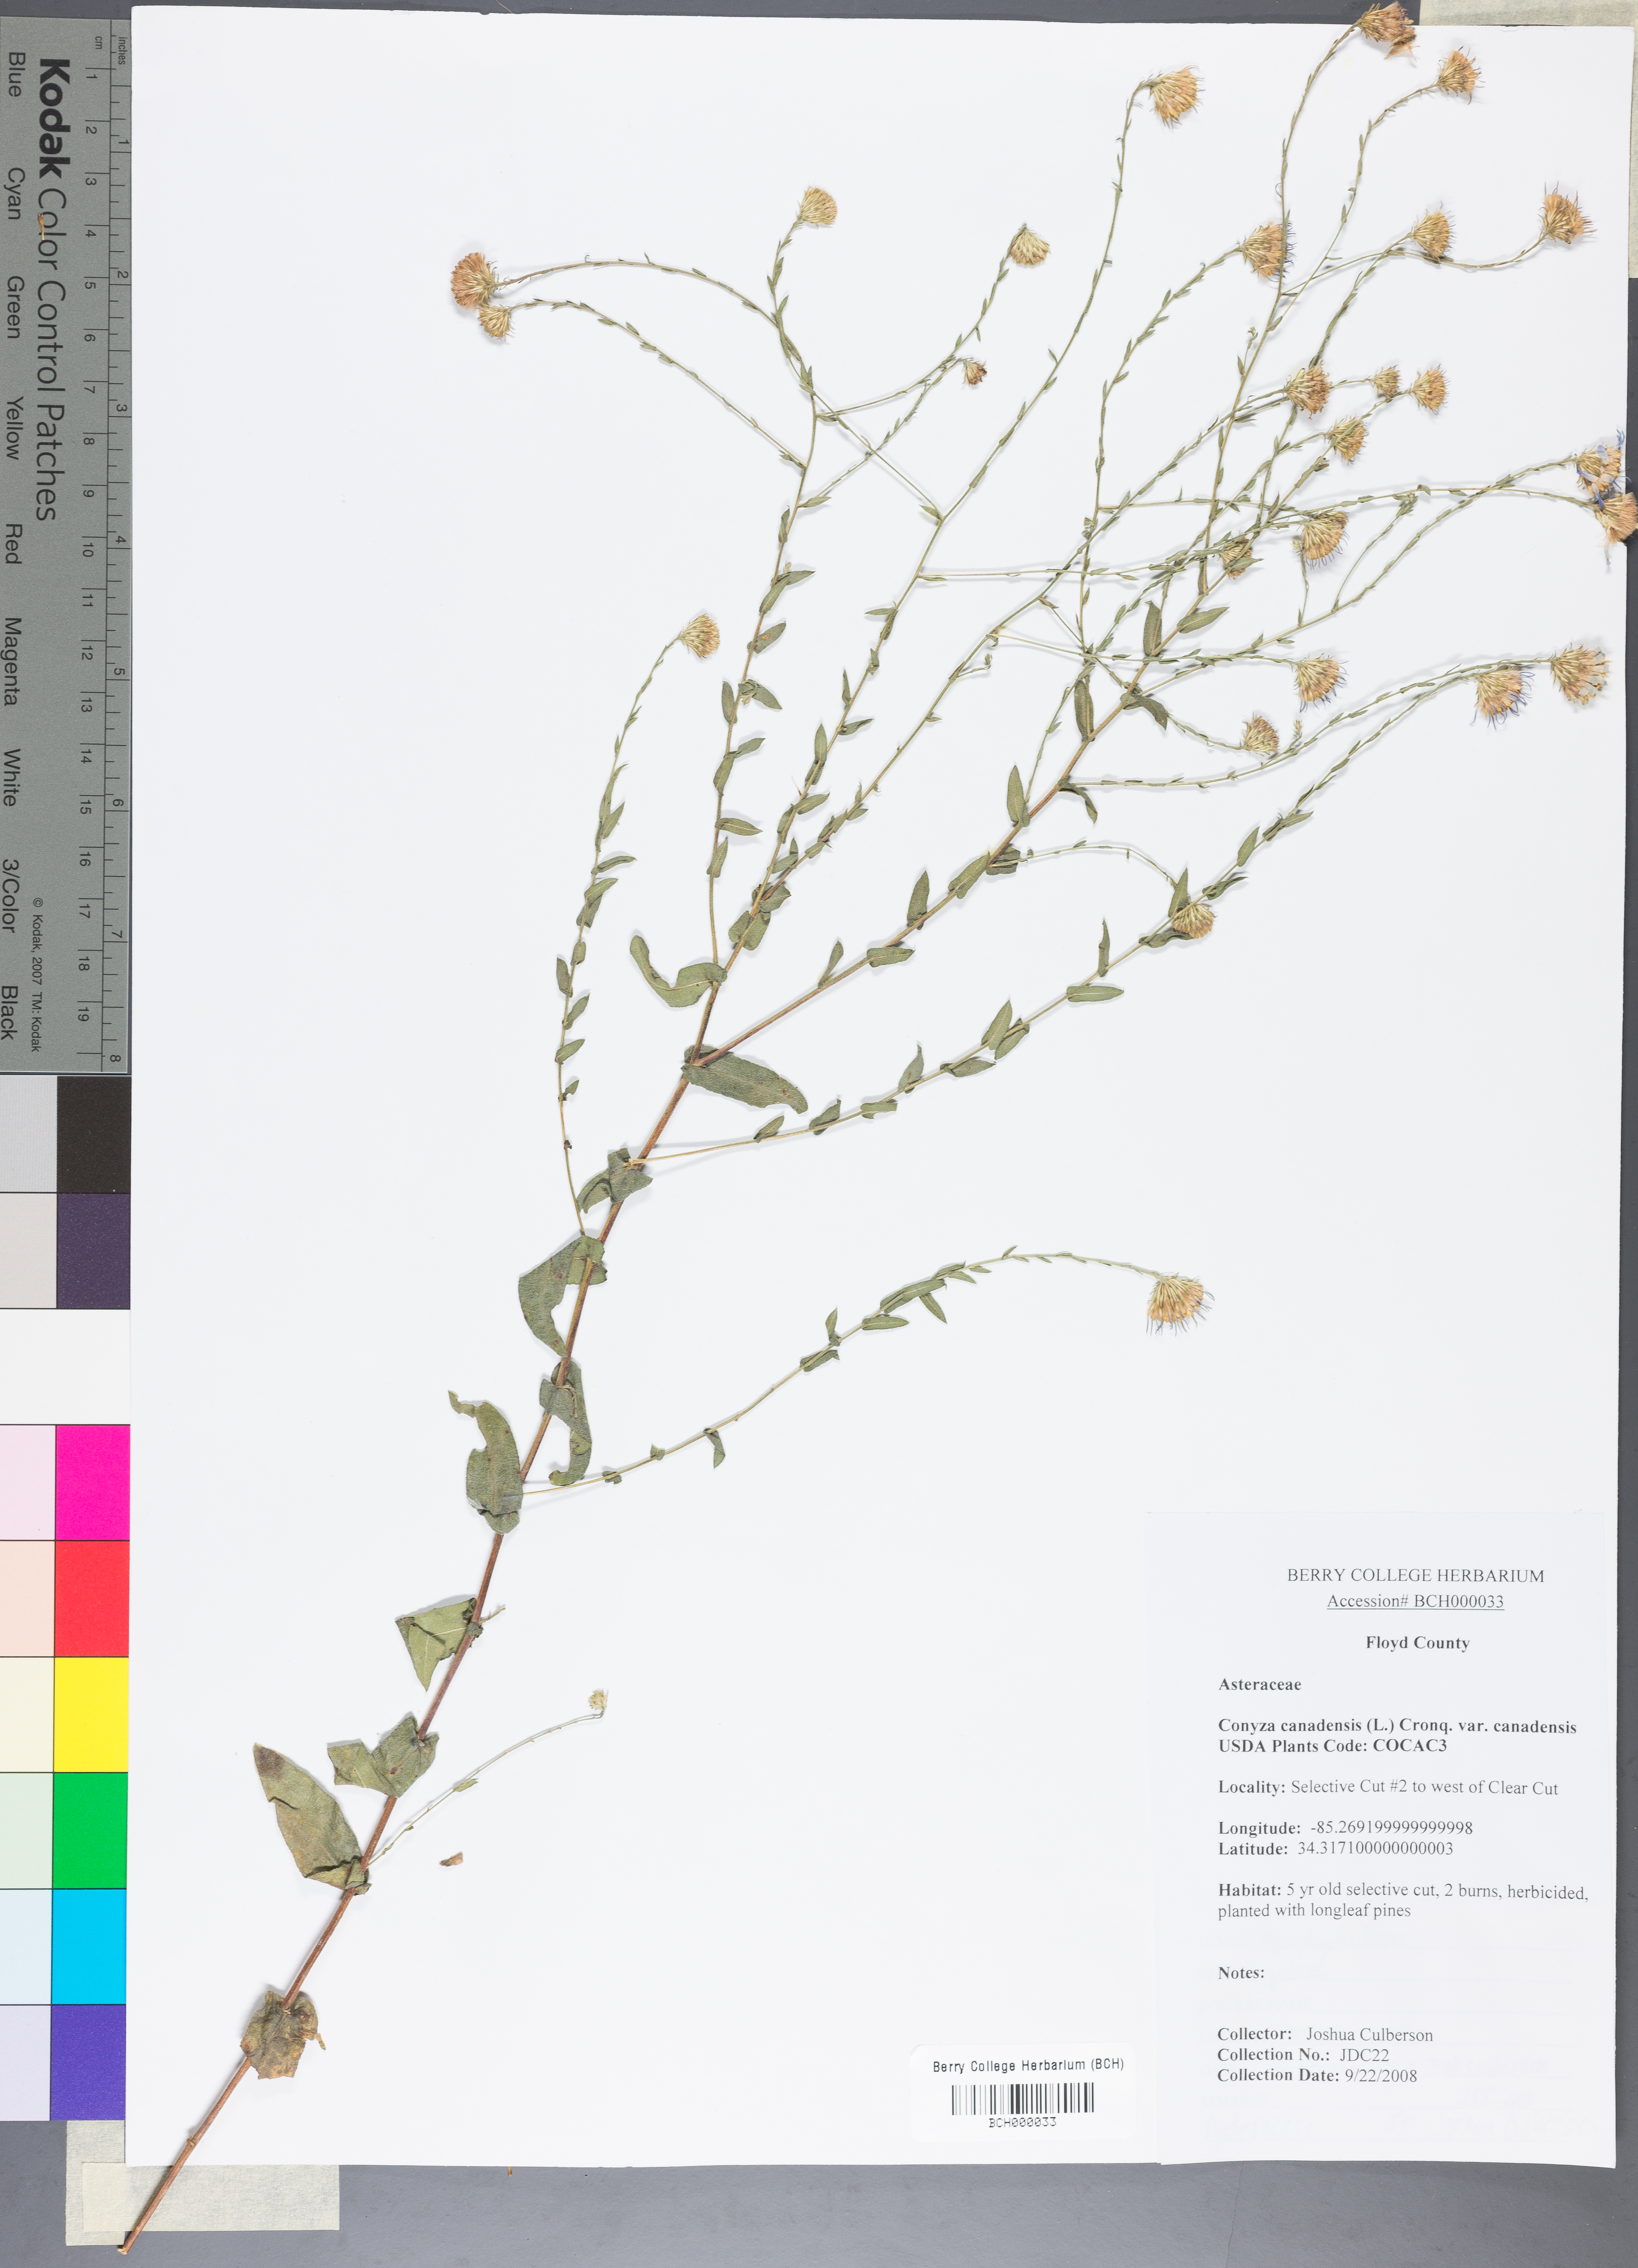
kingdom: Plantae
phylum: Tracheophyta
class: Magnoliopsida
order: Asterales
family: Asteraceae
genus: Erigeron
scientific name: Erigeron canadensis
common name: Canadian fleabane
